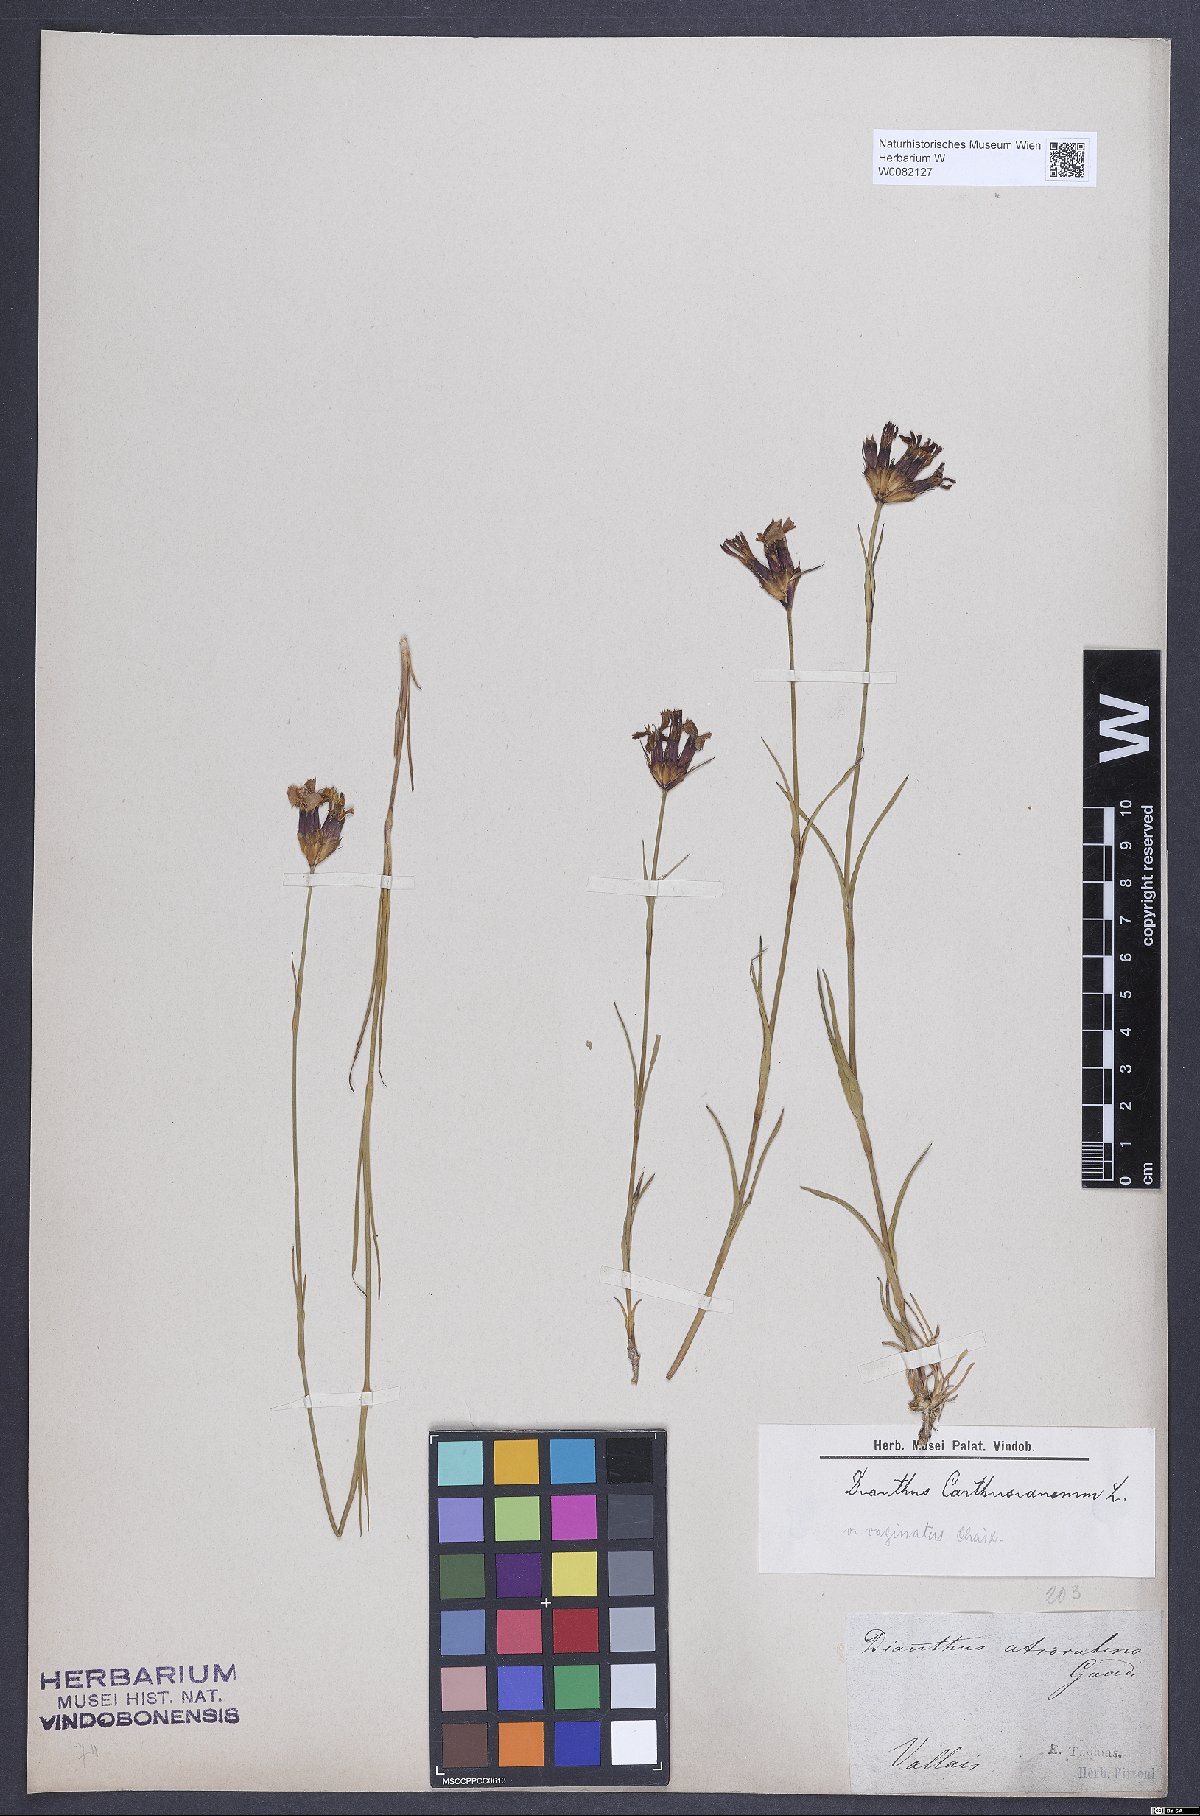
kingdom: Plantae
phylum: Tracheophyta
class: Magnoliopsida
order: Caryophyllales
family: Caryophyllaceae
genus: Dianthus
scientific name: Dianthus carthusianorum
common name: Carthusian pink
